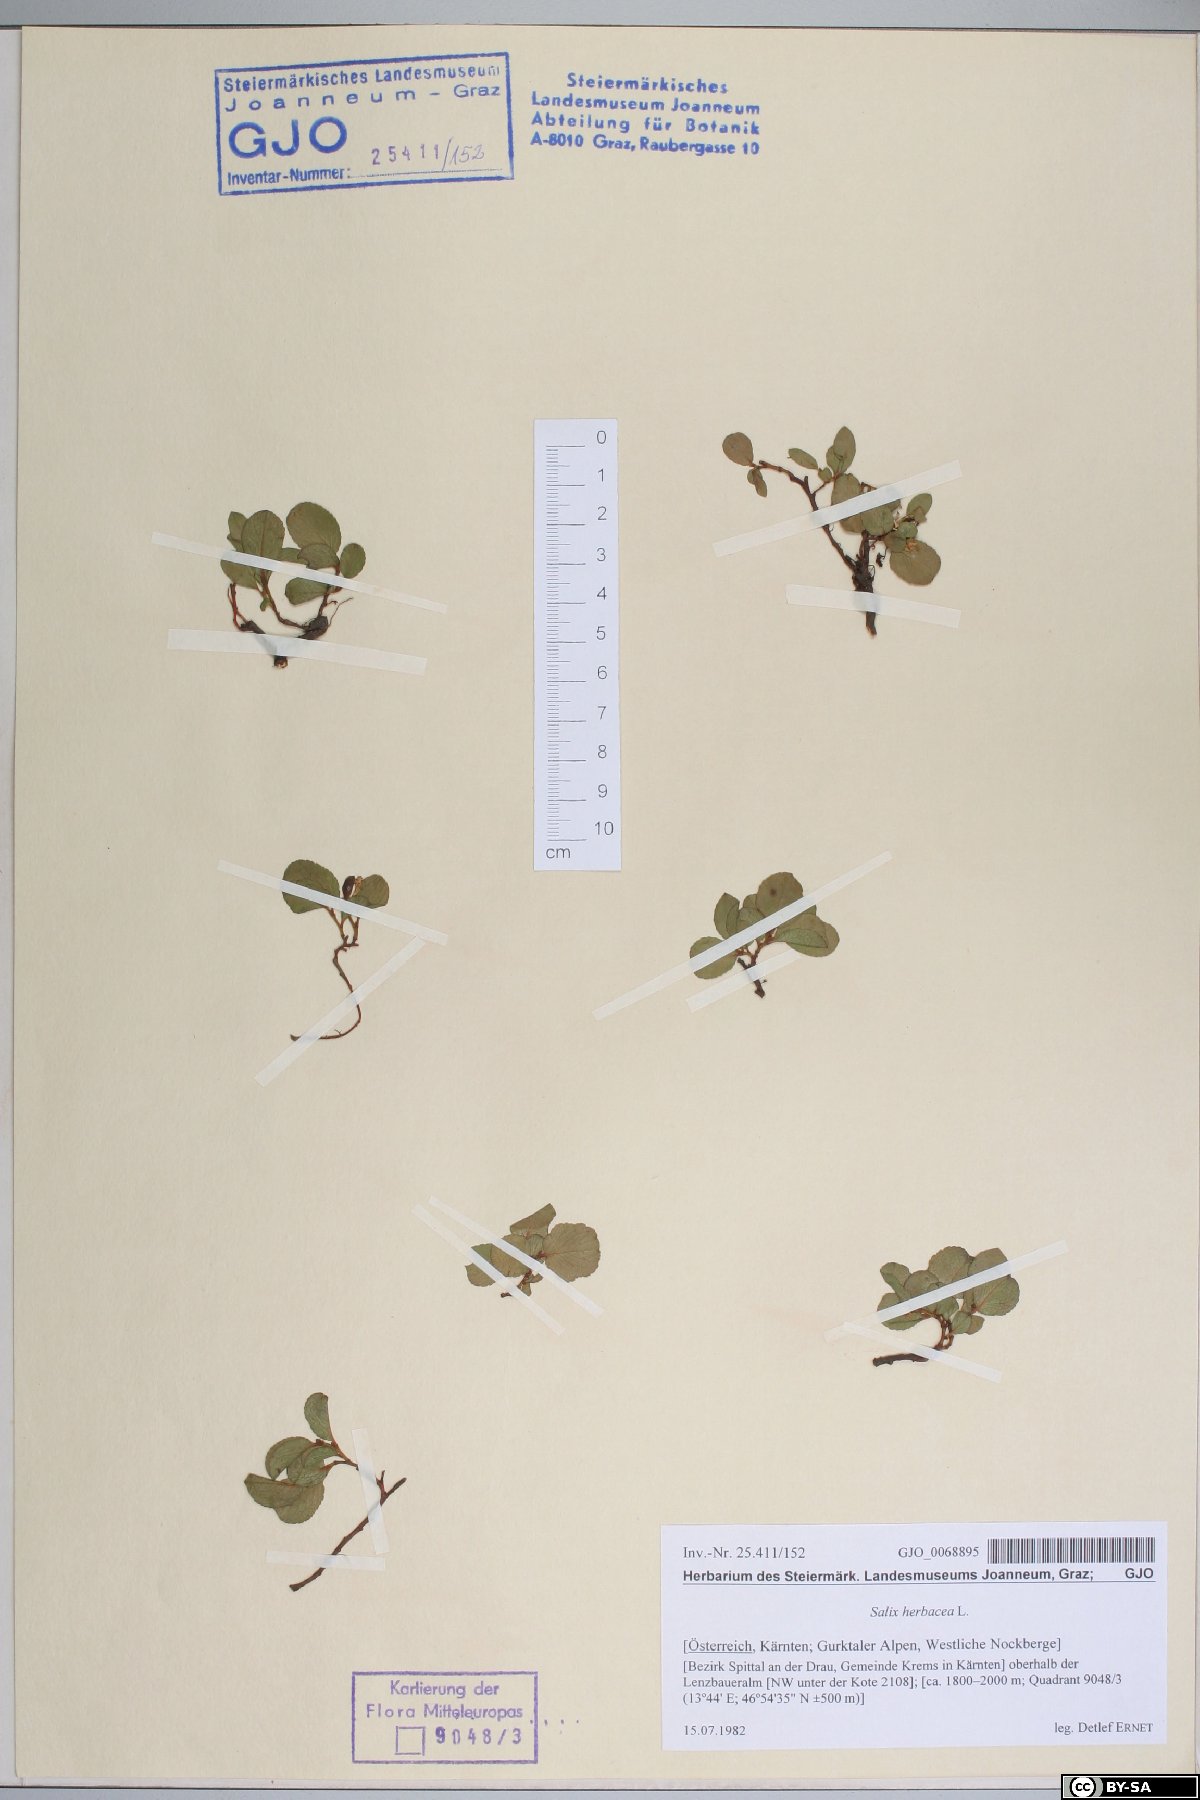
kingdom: Plantae
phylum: Tracheophyta
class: Magnoliopsida
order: Malpighiales
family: Salicaceae
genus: Salix
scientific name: Salix herbacea
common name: Dwarf willow
